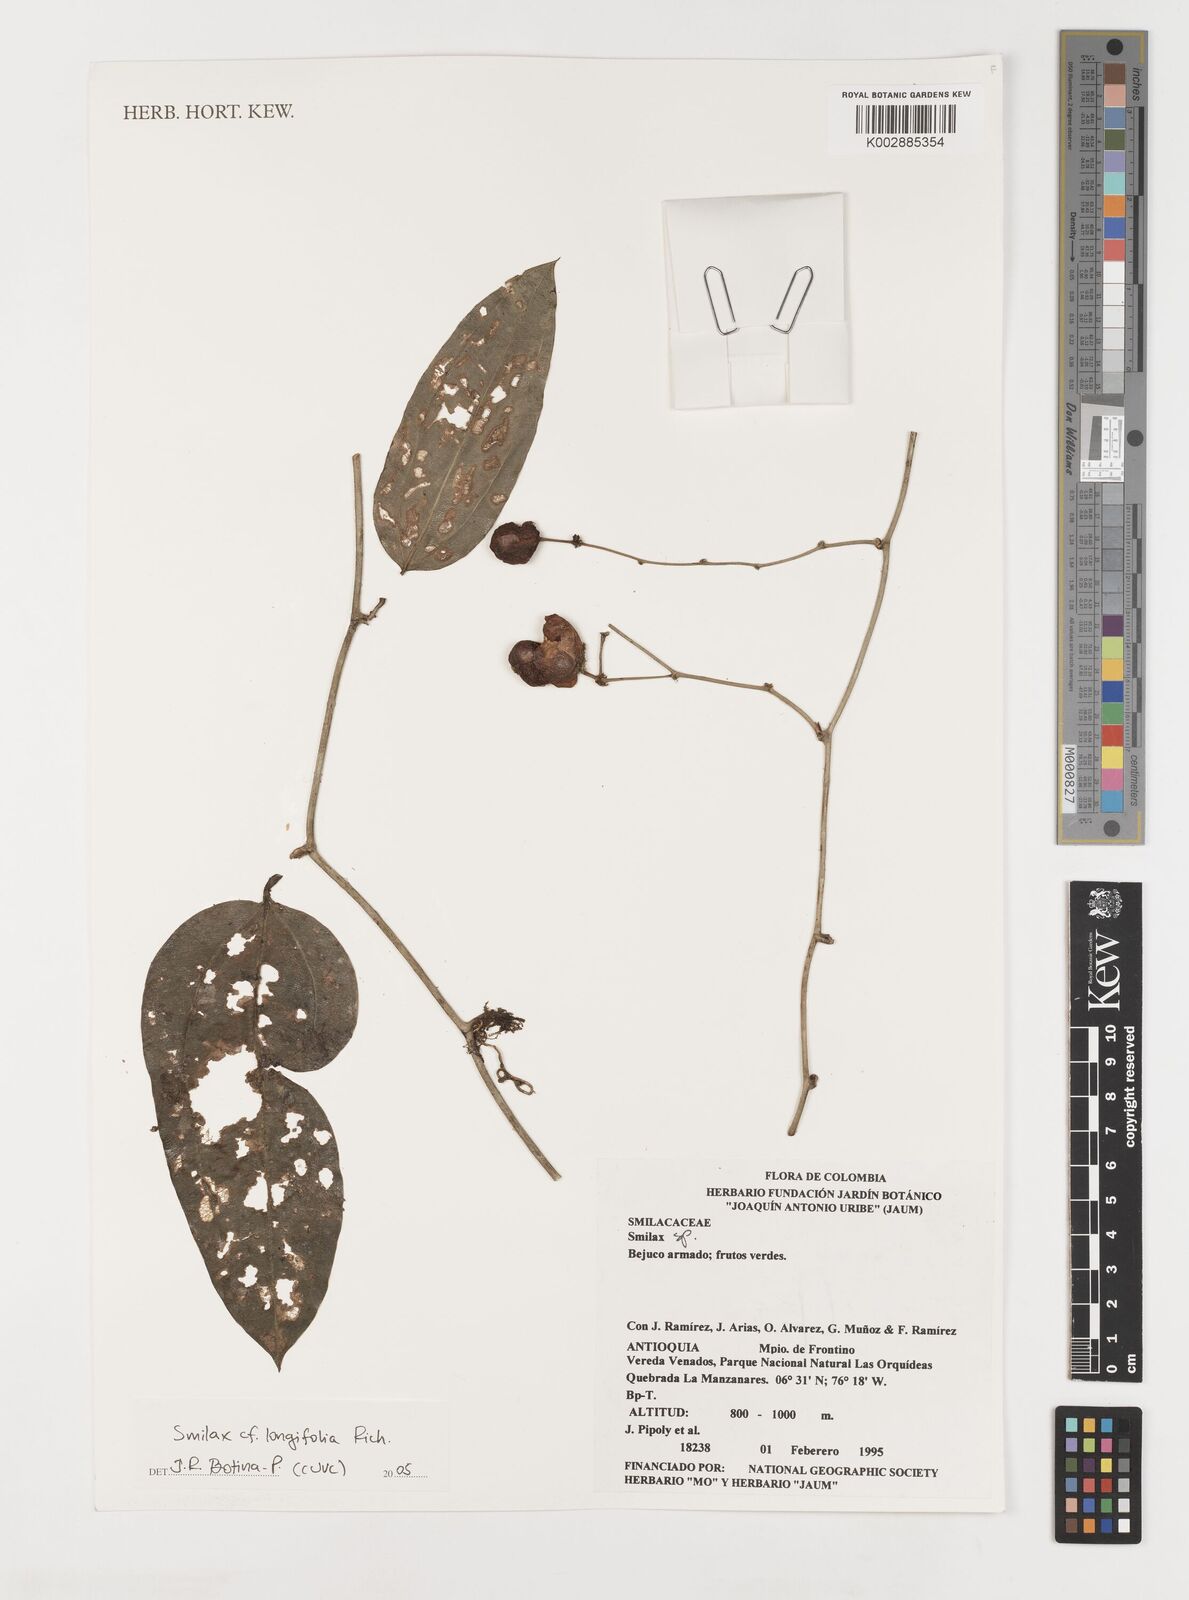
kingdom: Plantae
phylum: Tracheophyta
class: Liliopsida
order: Liliales
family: Smilacaceae
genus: Smilax
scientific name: Smilax longifolia
